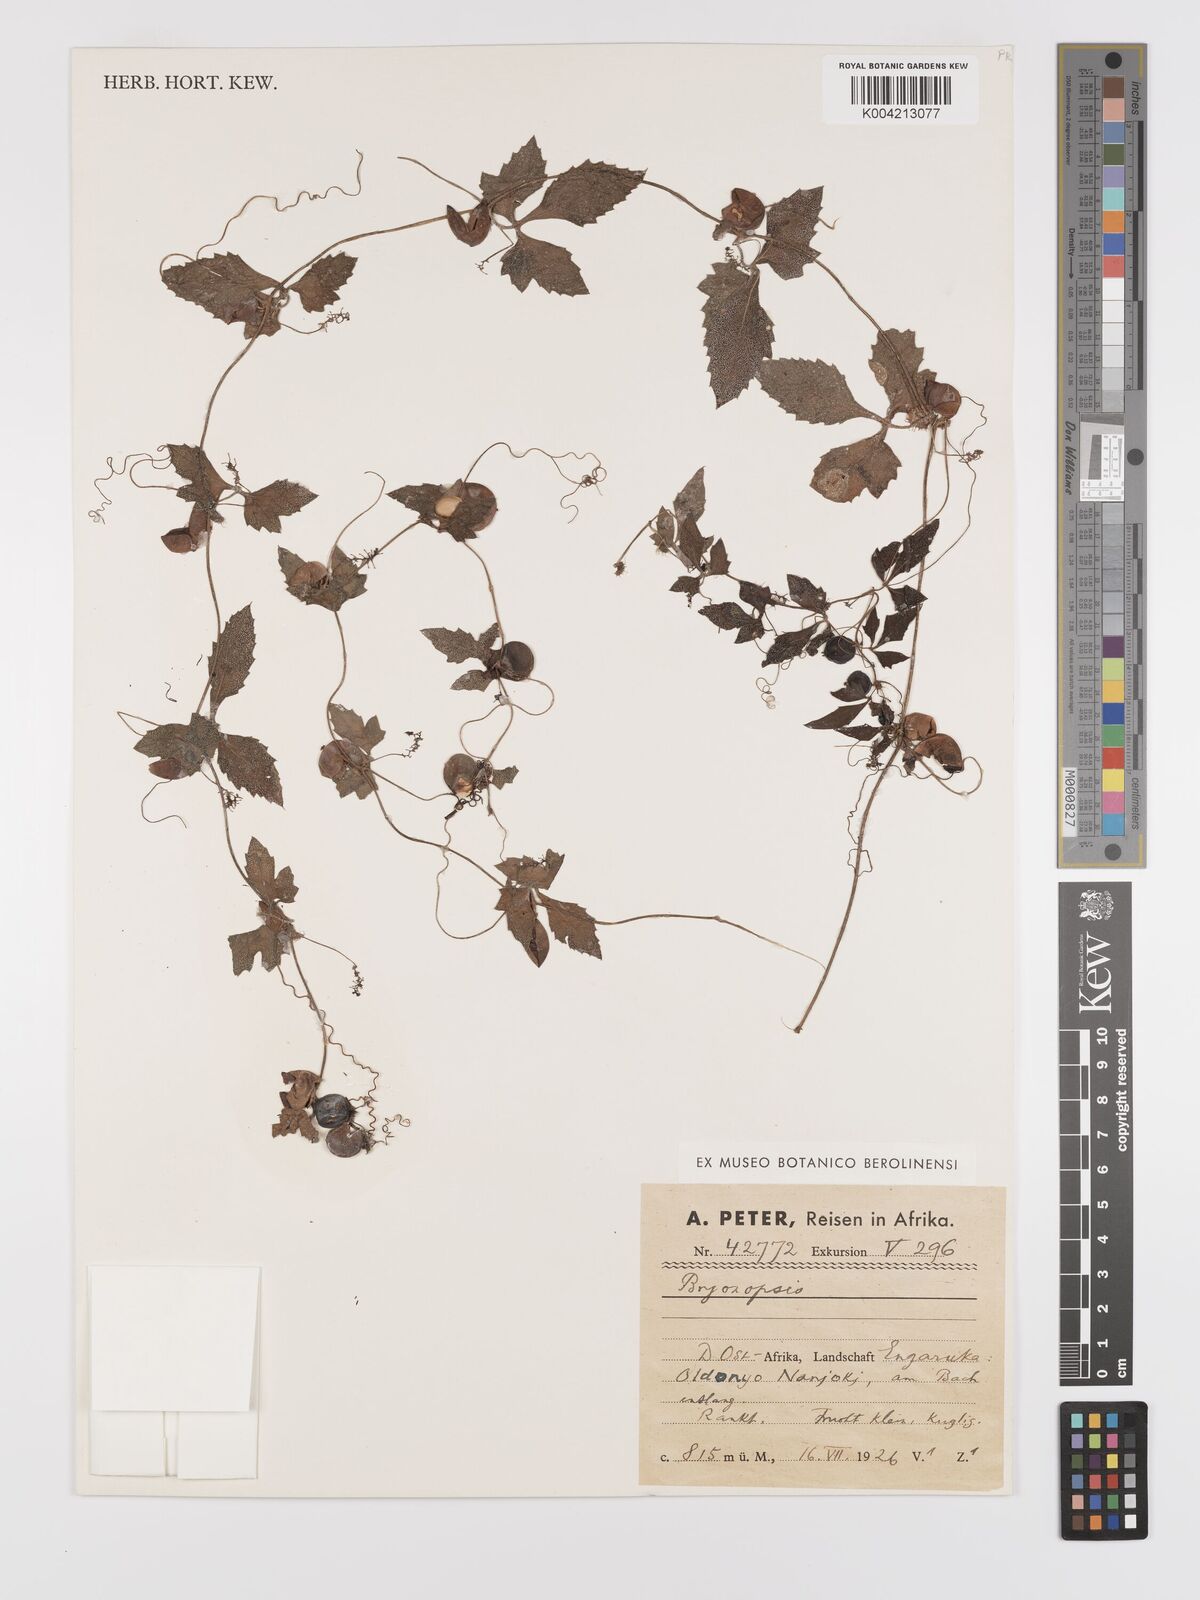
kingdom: Plantae
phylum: Tracheophyta
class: Magnoliopsida
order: Cucurbitales
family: Cucurbitaceae
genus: Blastania
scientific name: Blastania cerasiformis
